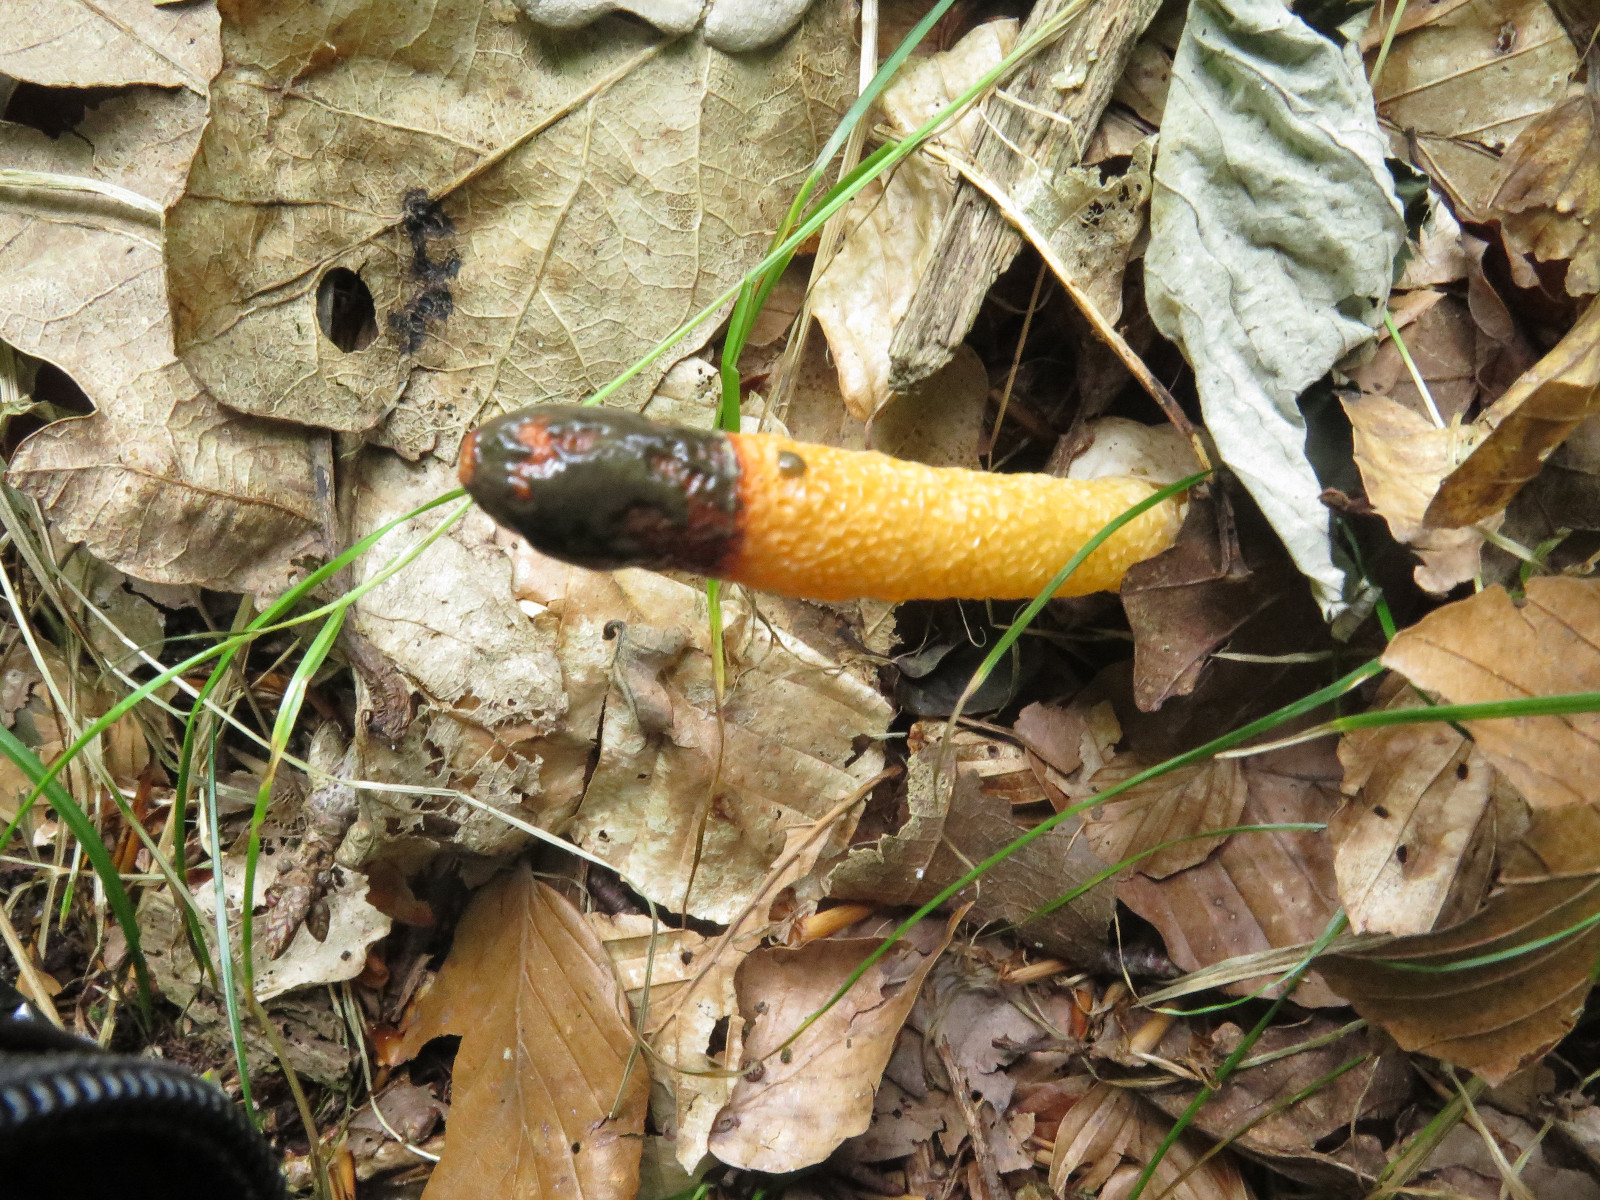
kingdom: Fungi
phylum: Basidiomycota
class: Agaricomycetes
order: Phallales
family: Phallaceae
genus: Mutinus
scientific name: Mutinus caninus
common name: hunde-stinksvamp
